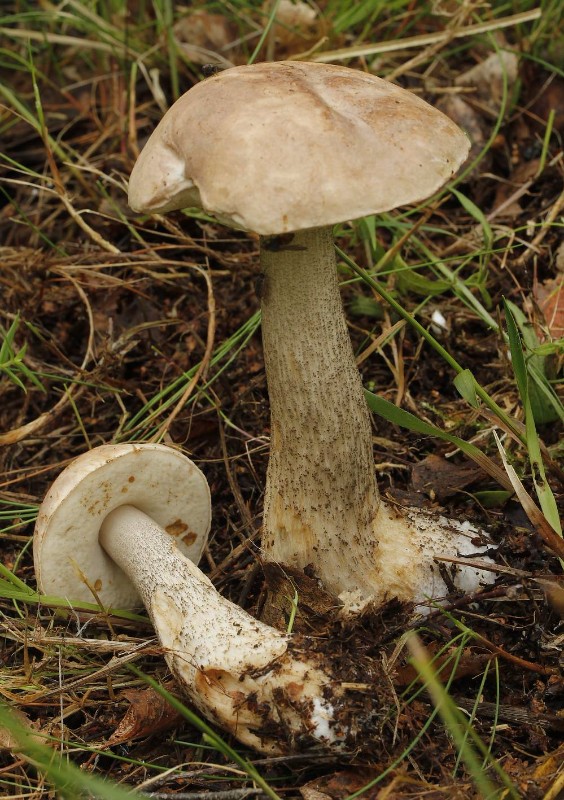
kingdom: Fungi
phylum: Basidiomycota
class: Agaricomycetes
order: Boletales
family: Boletaceae
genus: Leccinum
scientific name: Leccinum
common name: skælrørhat
